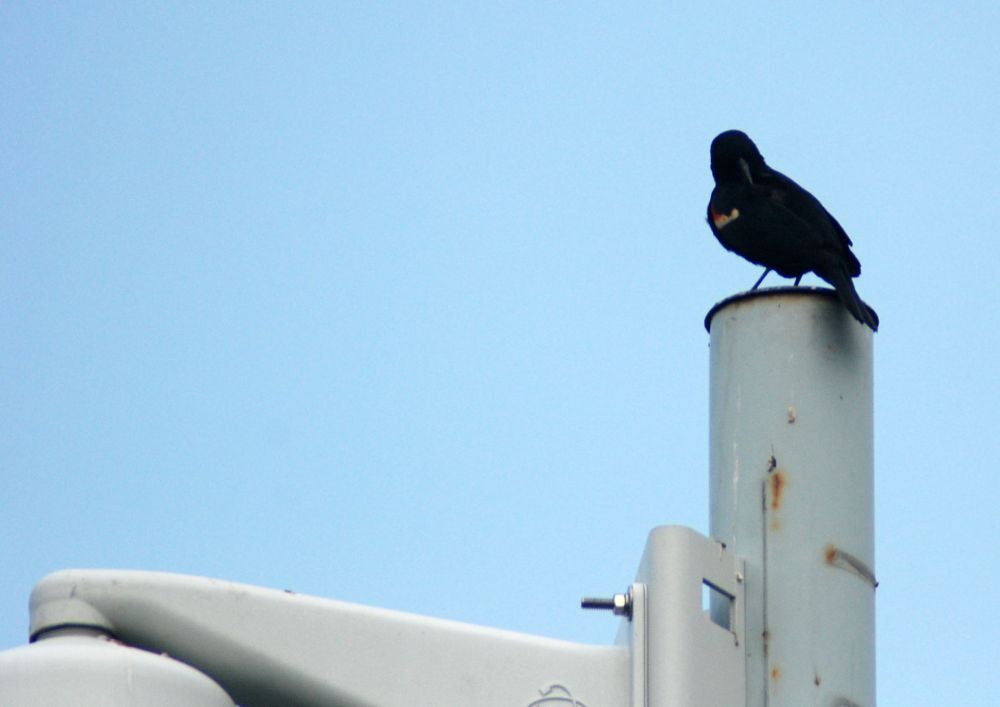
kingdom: Animalia
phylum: Chordata
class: Aves
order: Passeriformes
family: Icteridae
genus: Agelaius
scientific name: Agelaius phoeniceus
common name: Red-winged blackbird
